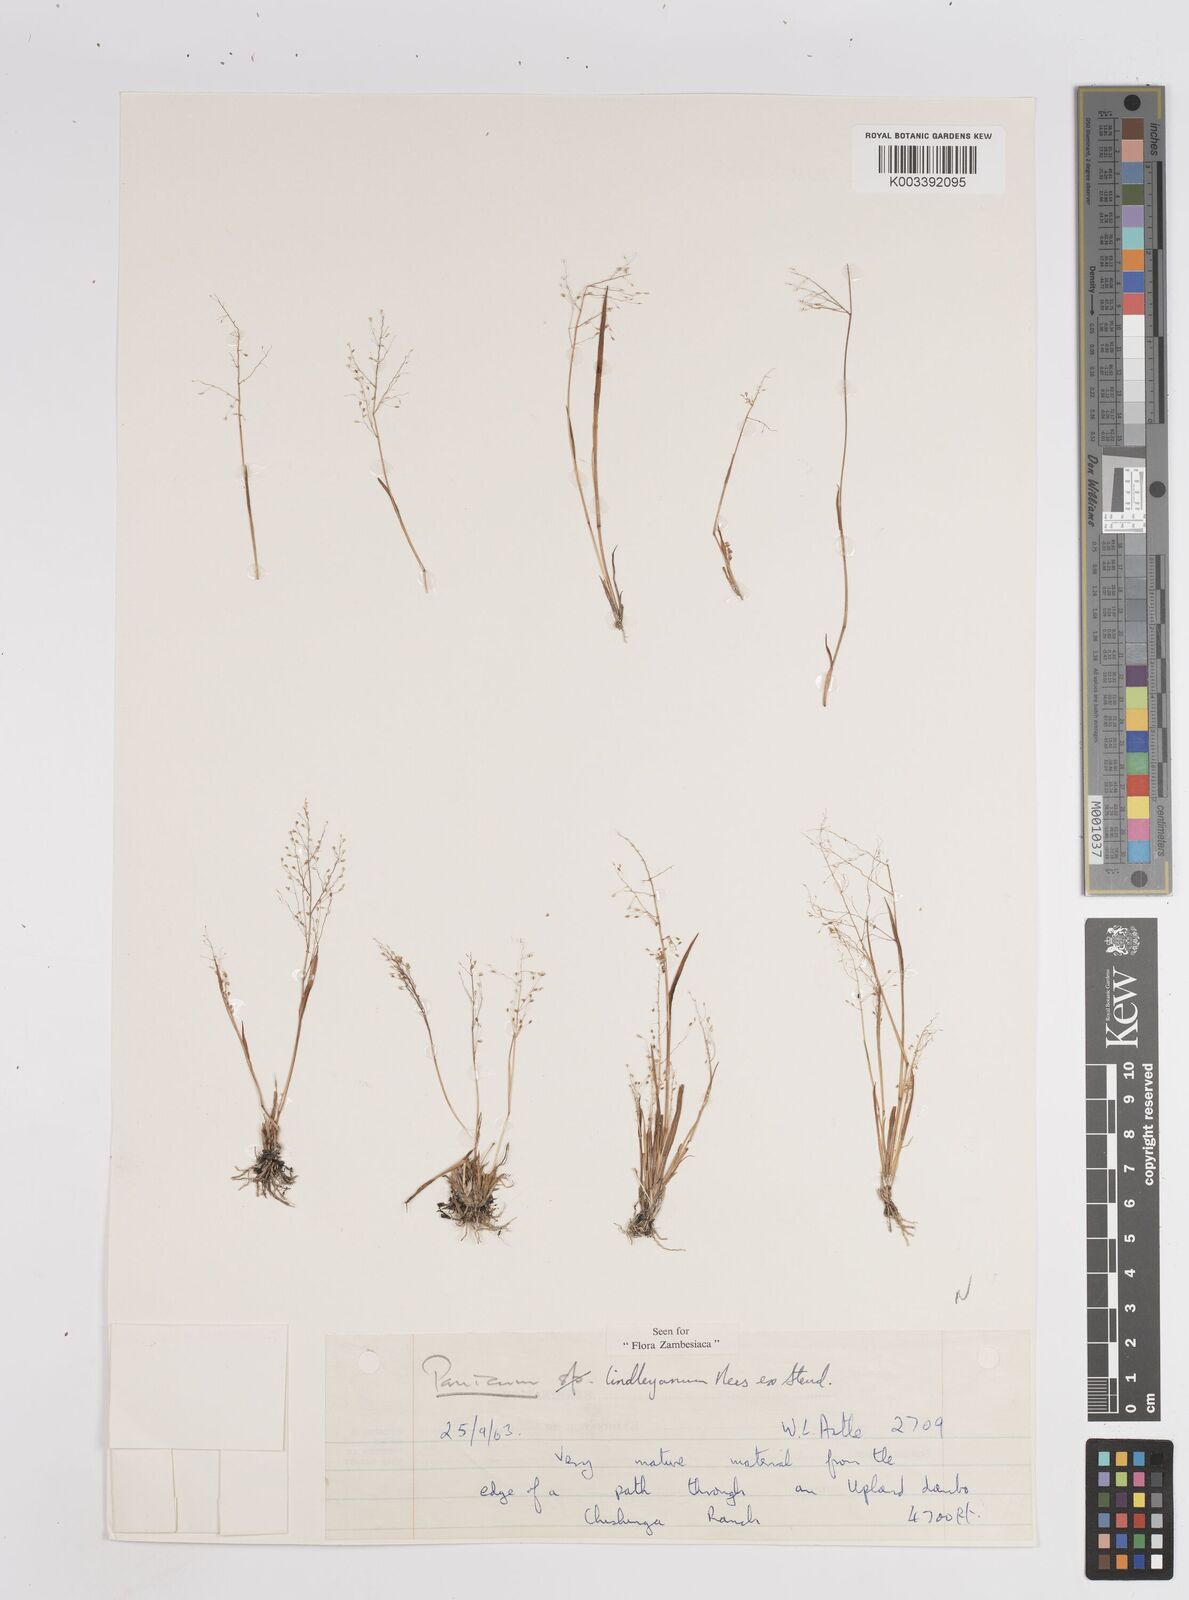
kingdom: Plantae
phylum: Tracheophyta
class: Liliopsida
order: Poales
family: Poaceae
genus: Trichanthecium
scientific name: Trichanthecium tenellum
